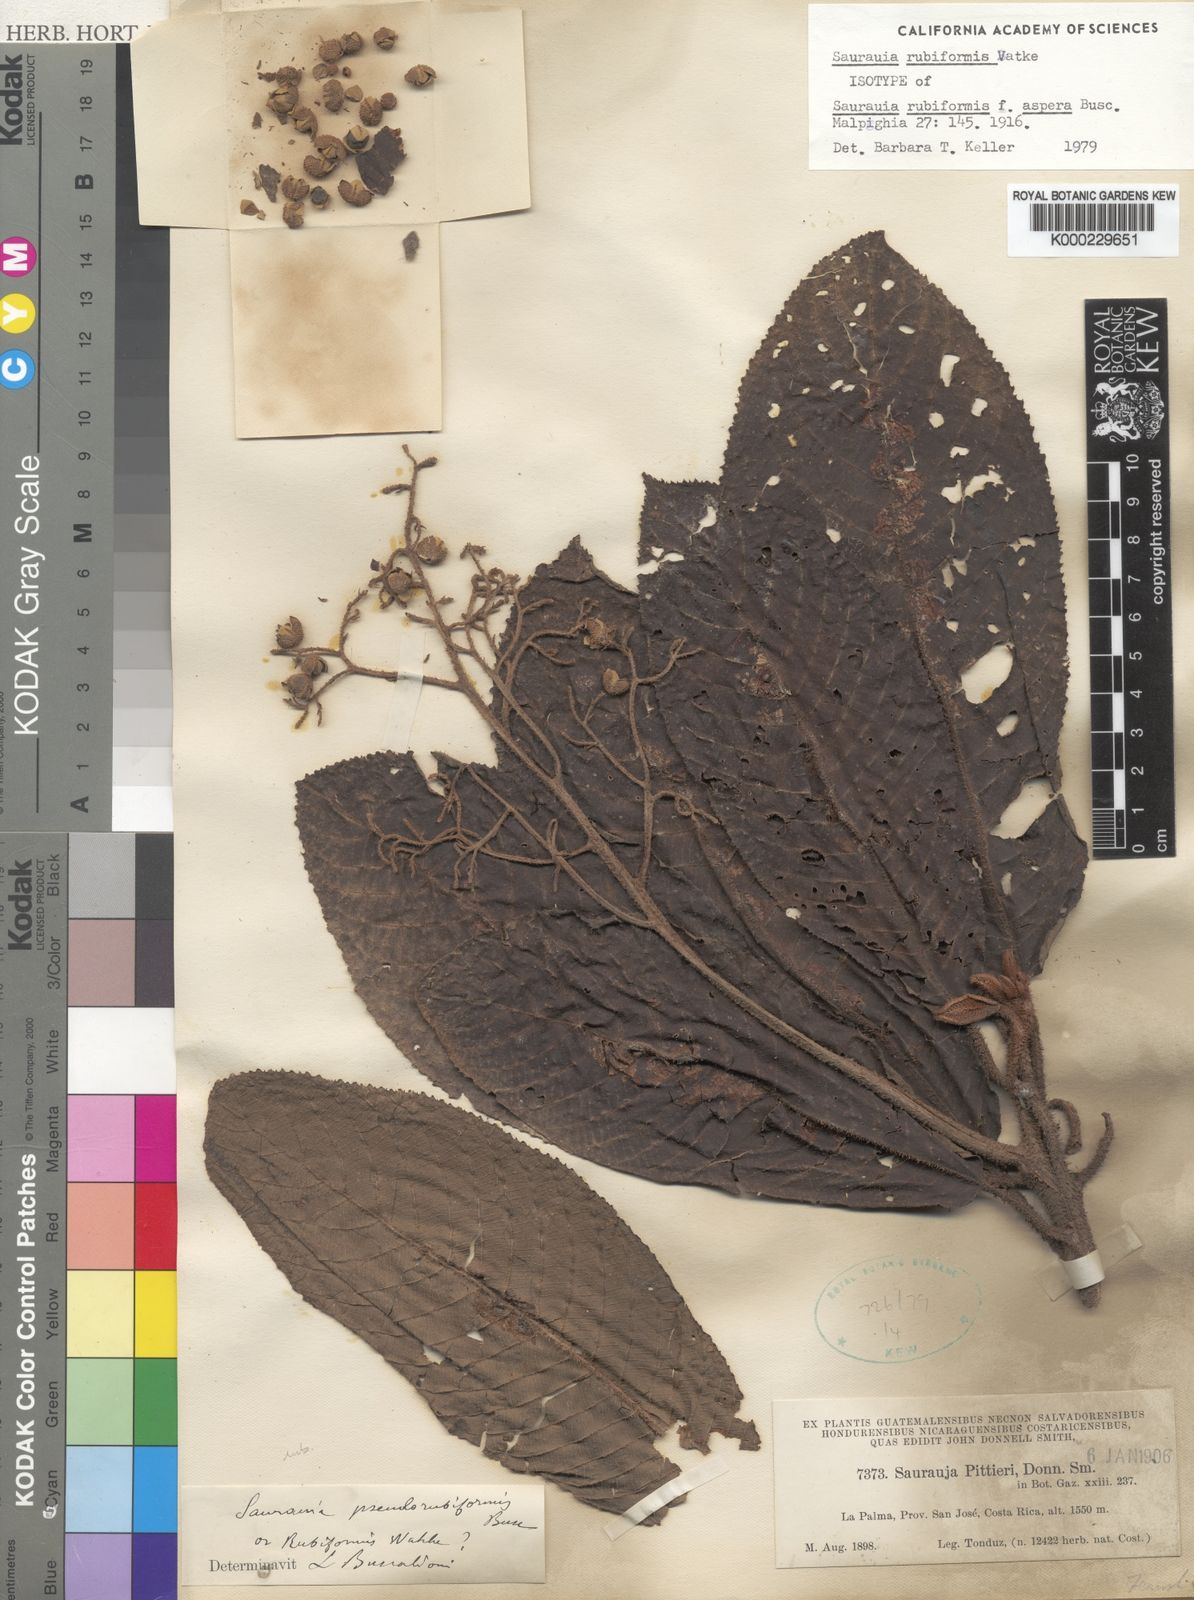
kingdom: Plantae
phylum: Tracheophyta
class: Magnoliopsida
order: Ericales
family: Actinidiaceae
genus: Saurauia
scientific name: Saurauia rubiformis
